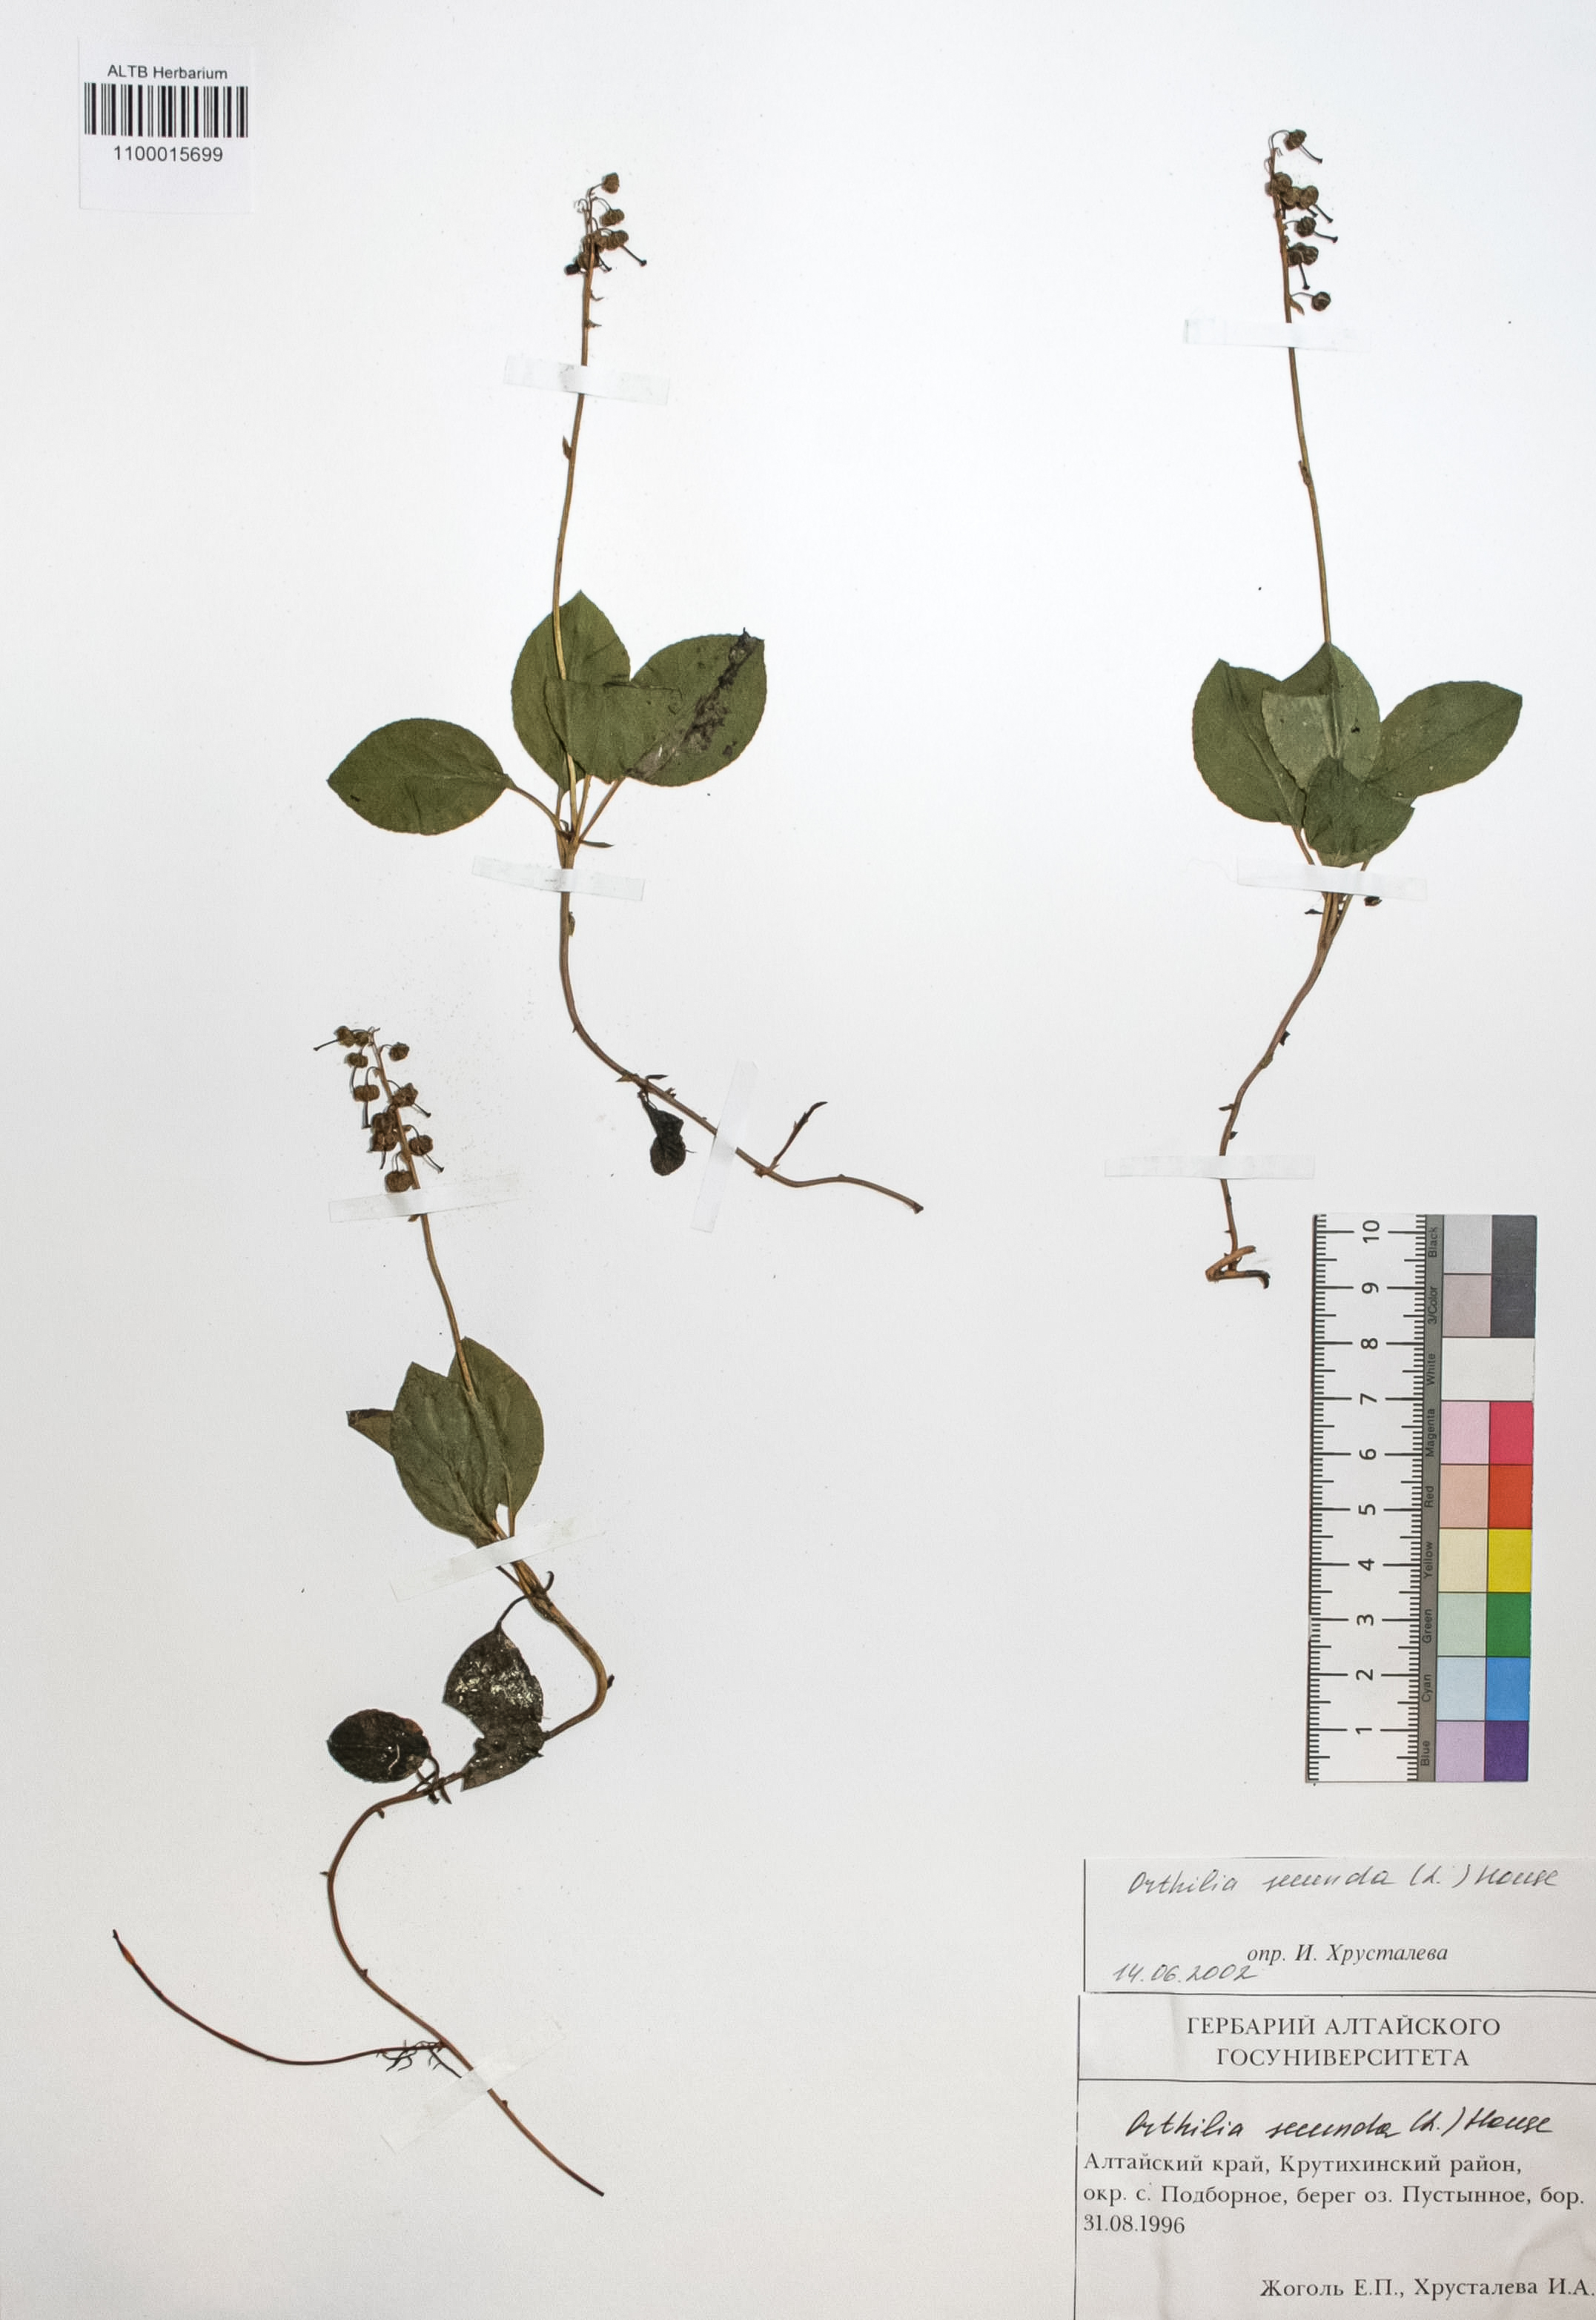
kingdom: Plantae
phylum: Tracheophyta
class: Magnoliopsida
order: Ericales
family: Ericaceae
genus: Orthilia
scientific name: Orthilia secunda
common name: One-sided orthilia
